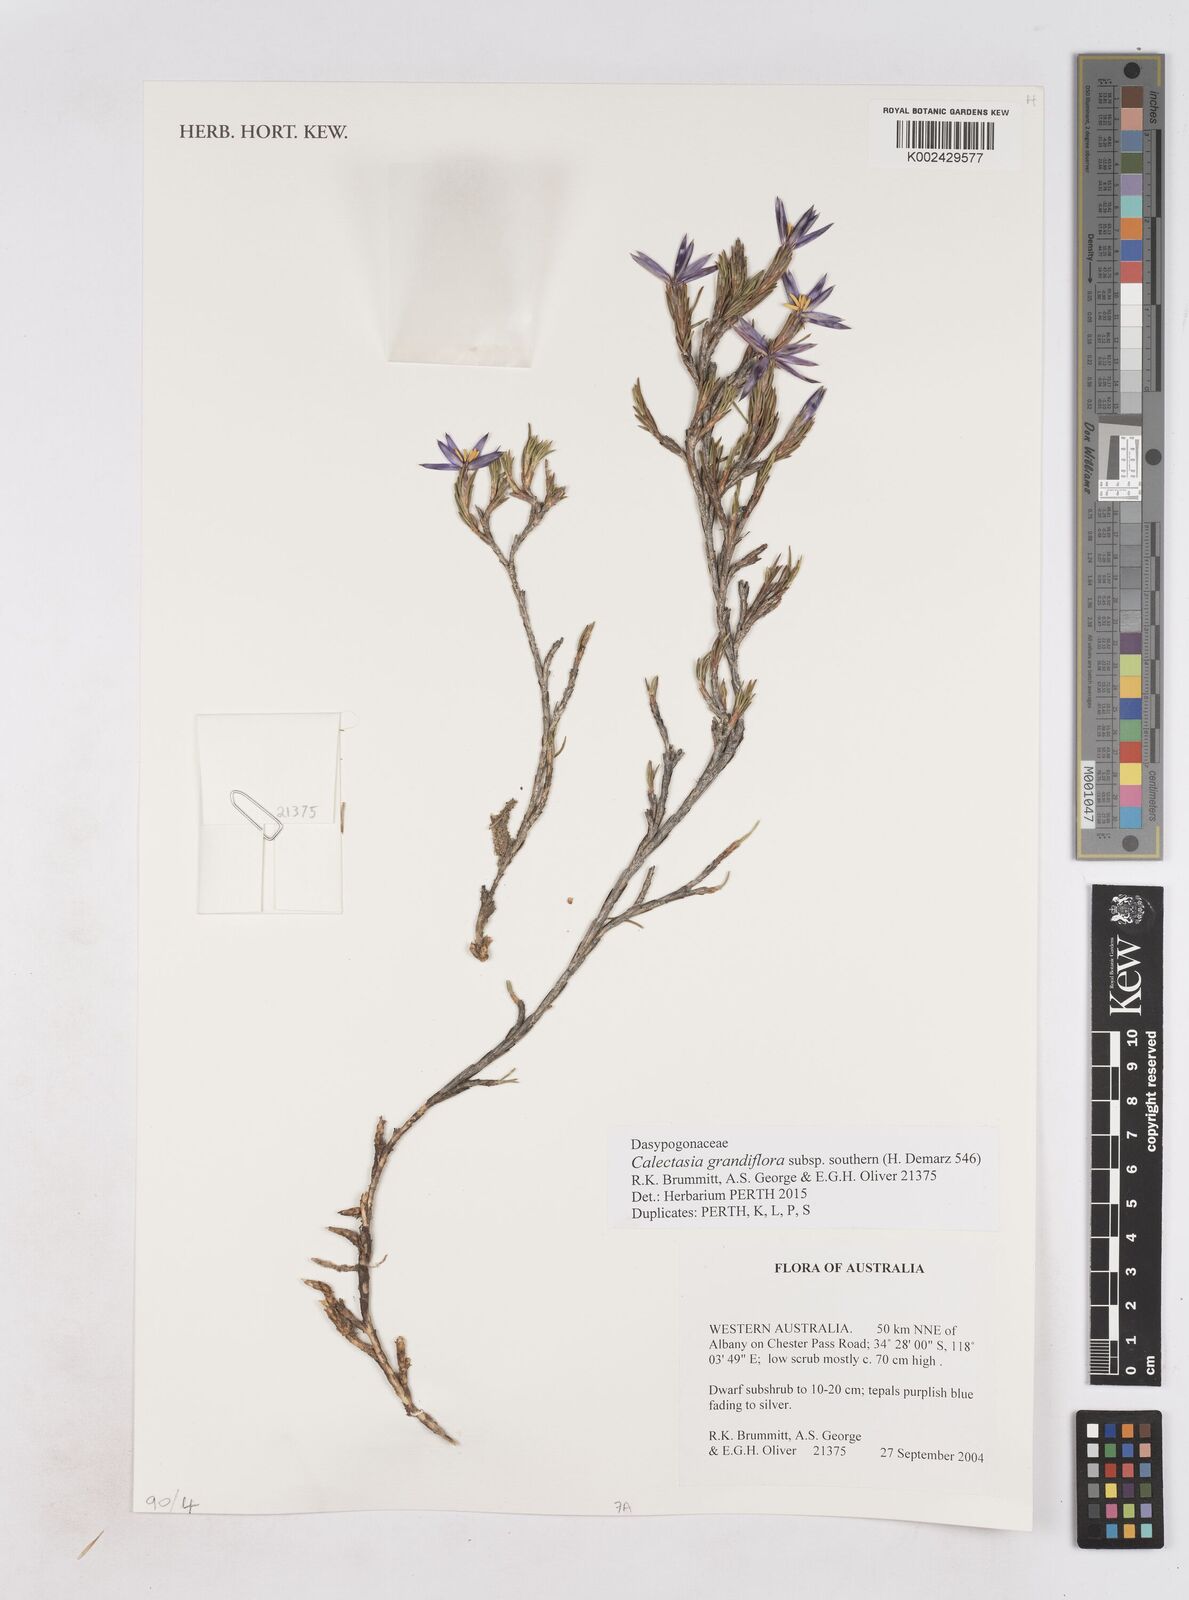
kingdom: Plantae
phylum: Tracheophyta
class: Liliopsida
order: Arecales
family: Dasypogonaceae
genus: Calectasia
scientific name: Calectasia grandiflora
